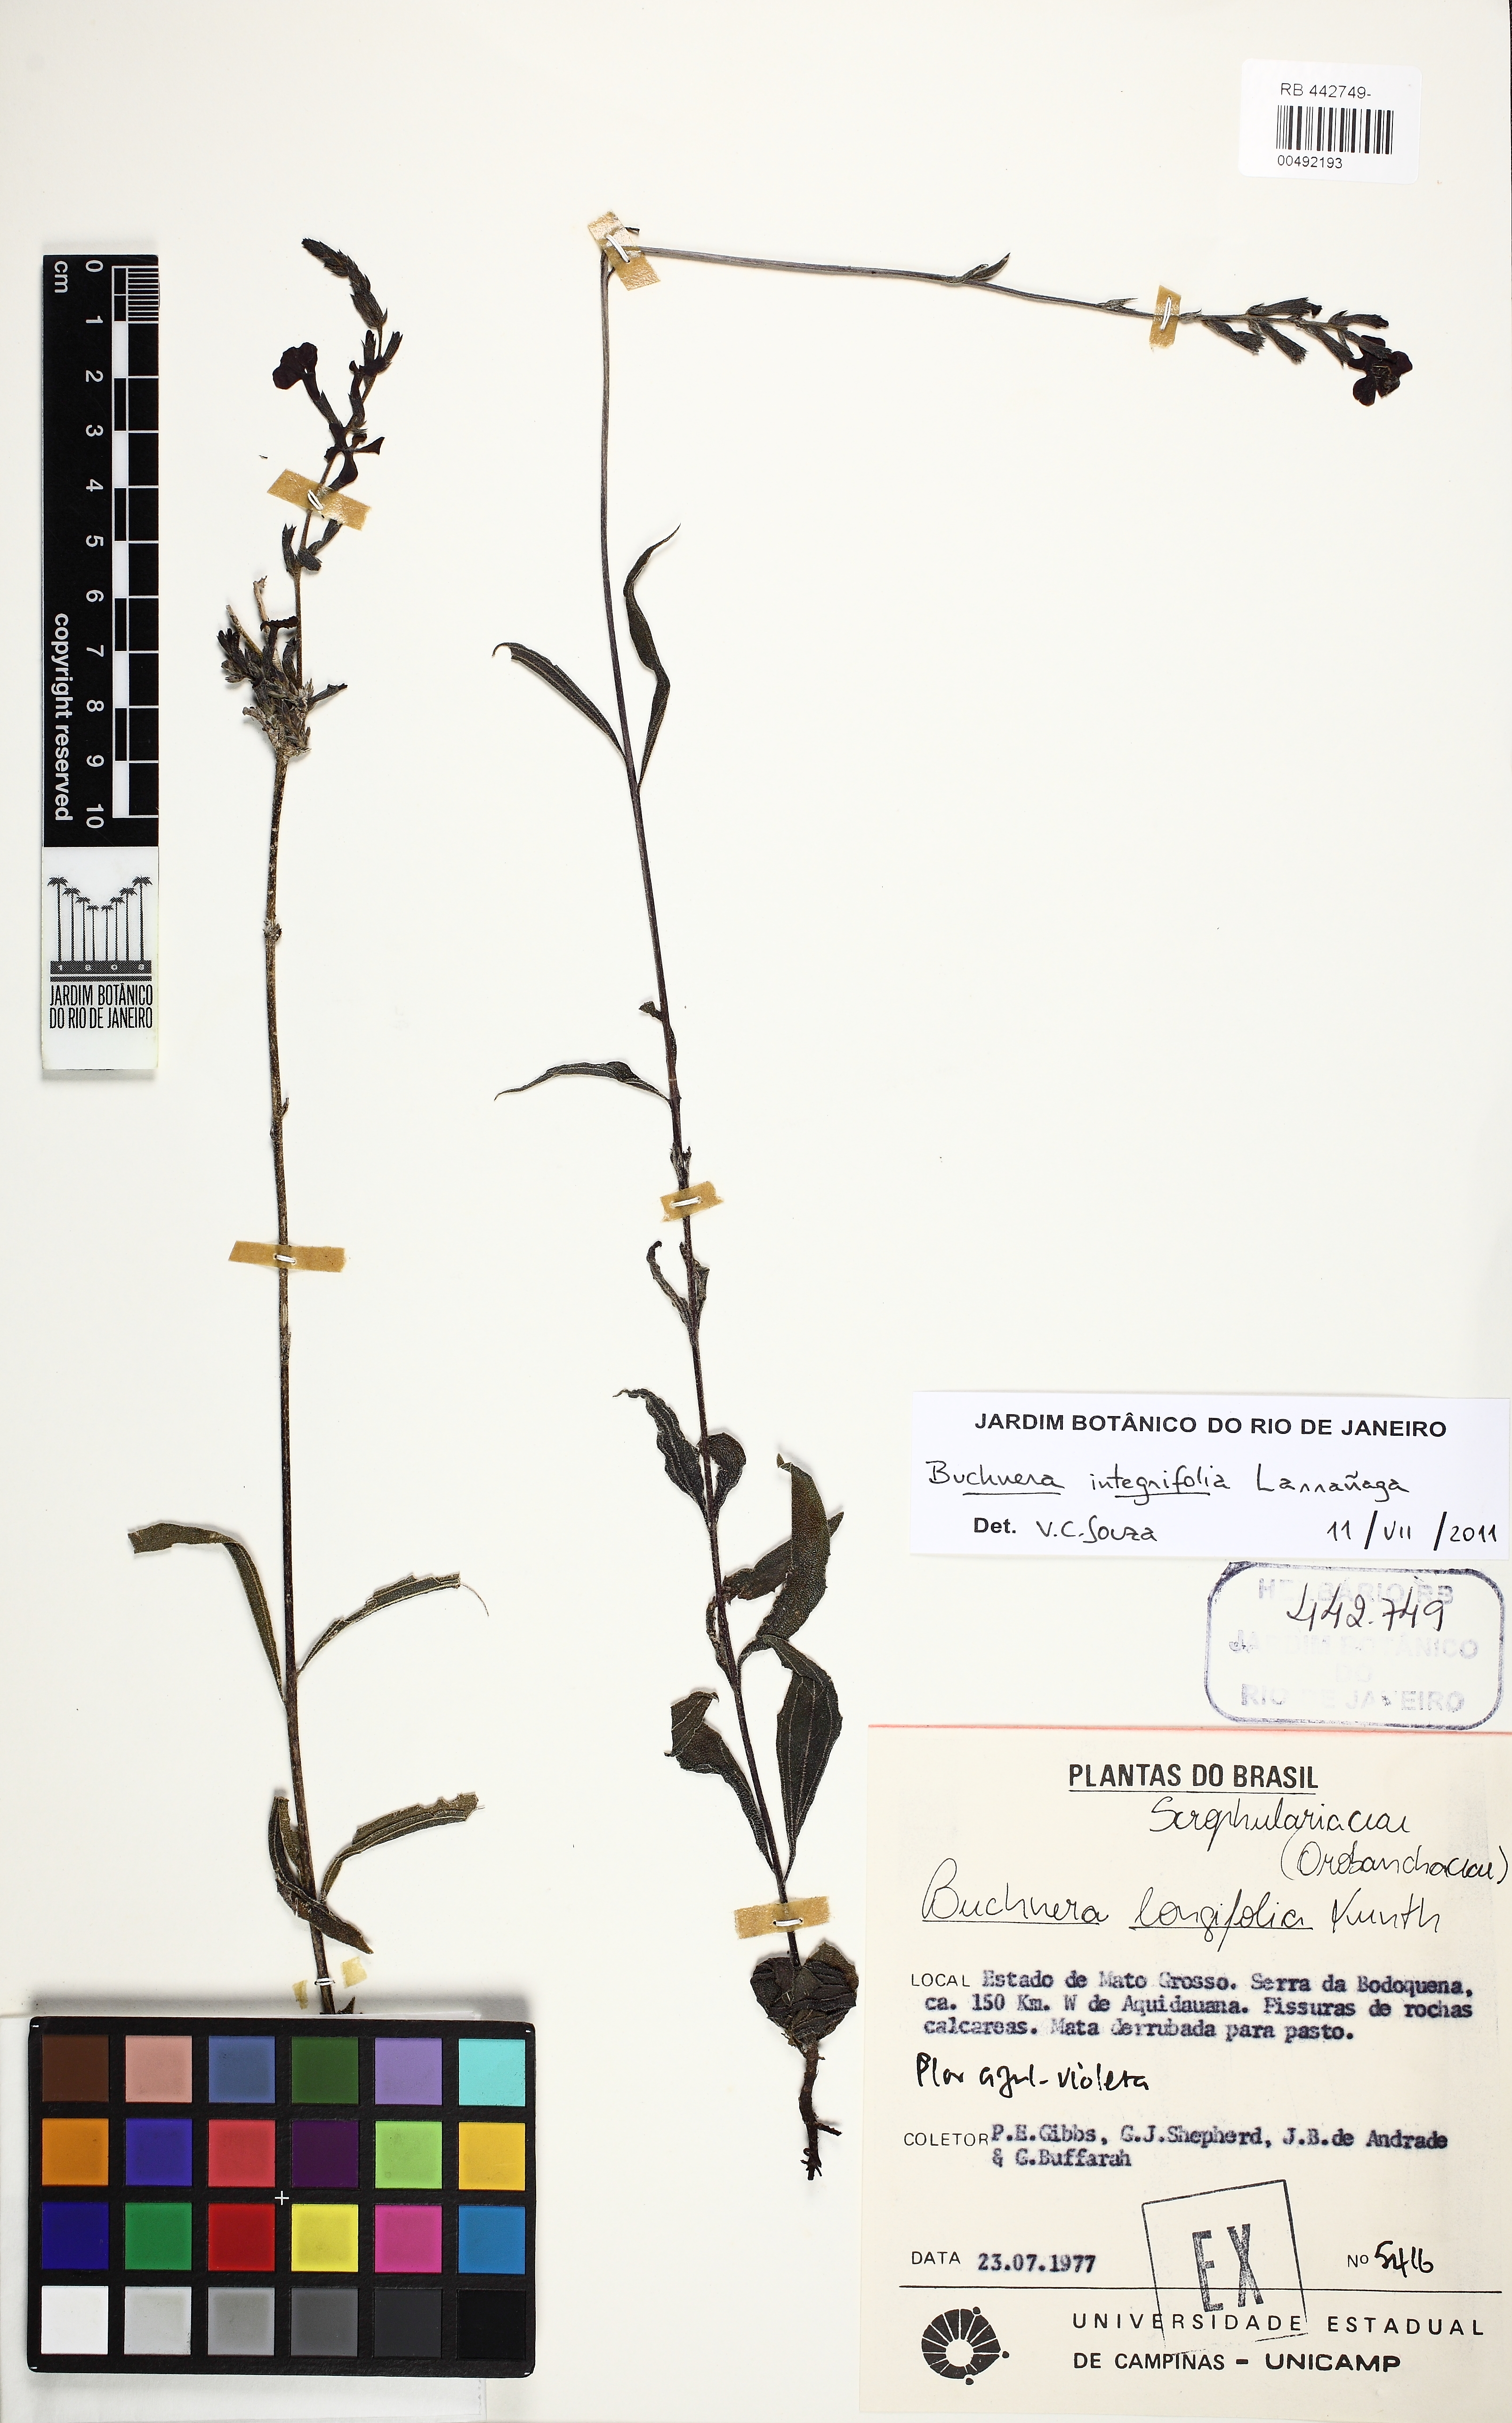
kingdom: Plantae
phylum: Tracheophyta
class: Magnoliopsida
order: Lamiales
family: Orobanchaceae
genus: Buchnera
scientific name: Buchnera pusilla
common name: Pygmy bluehearts
